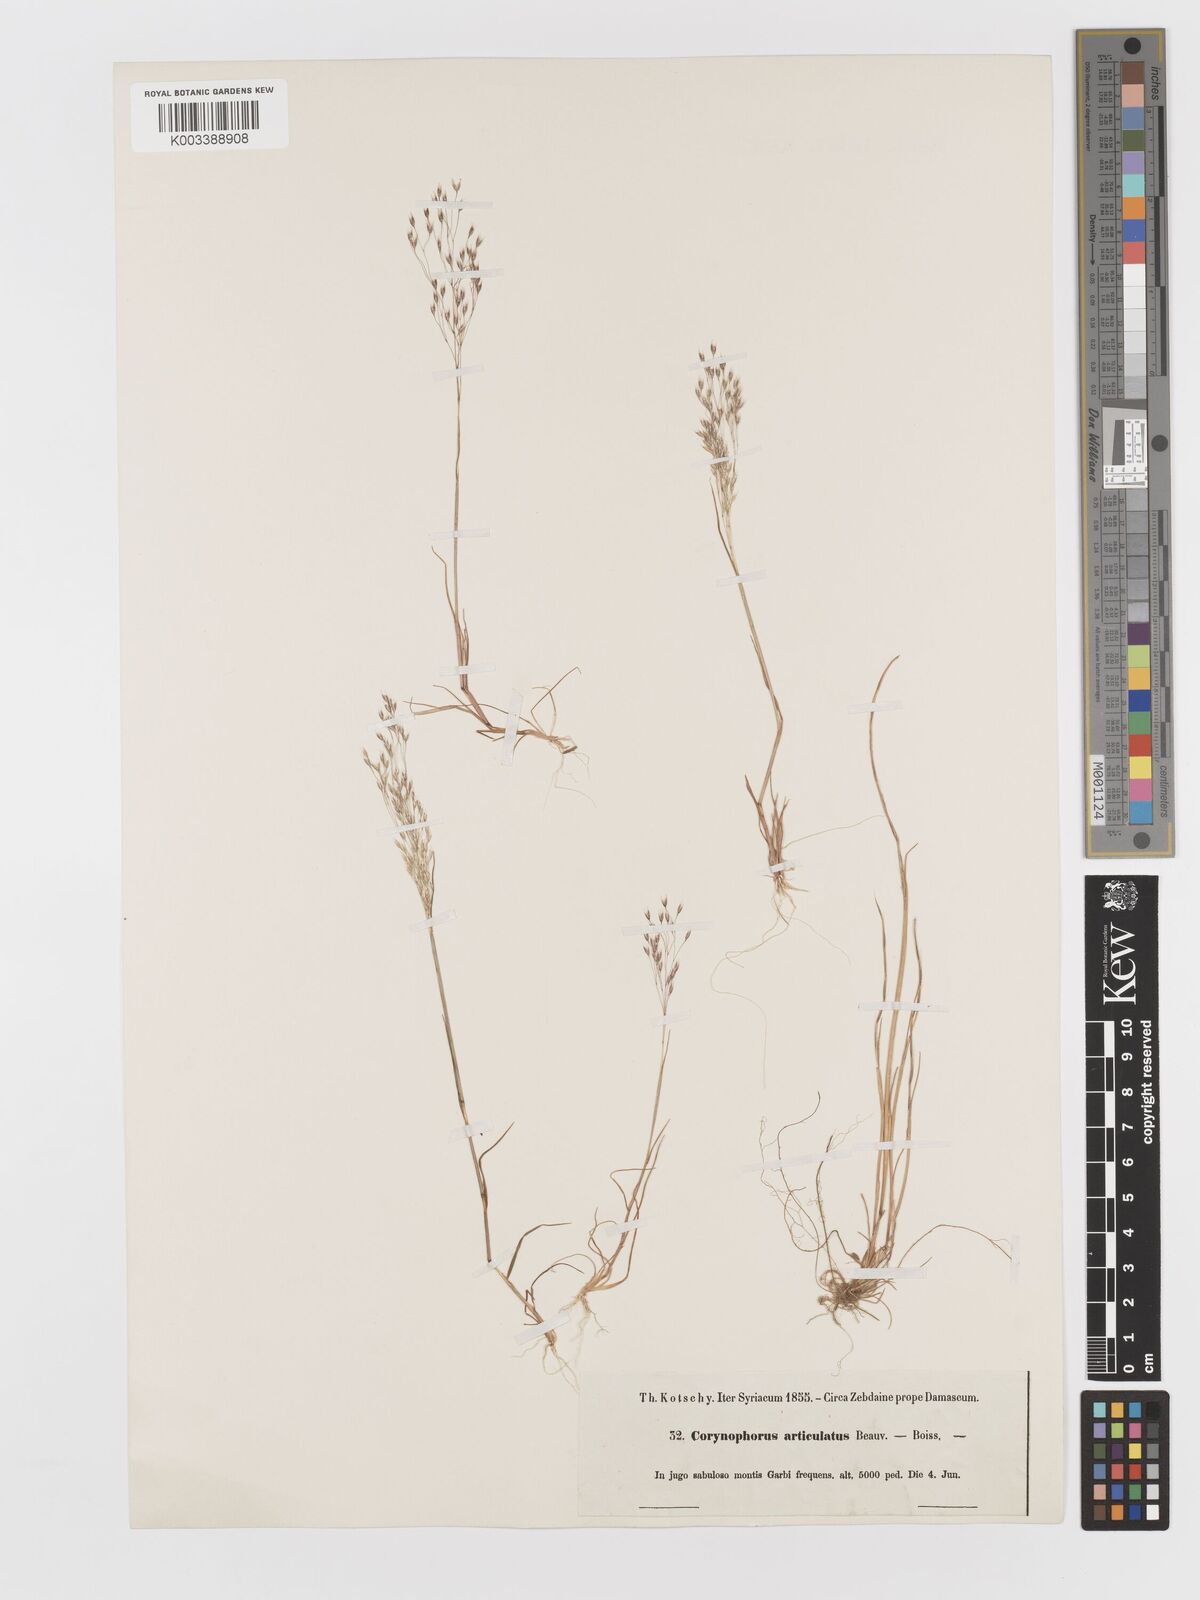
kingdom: Plantae
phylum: Tracheophyta
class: Liliopsida
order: Poales
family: Poaceae
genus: Corynephorus
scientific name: Corynephorus divaricatus
